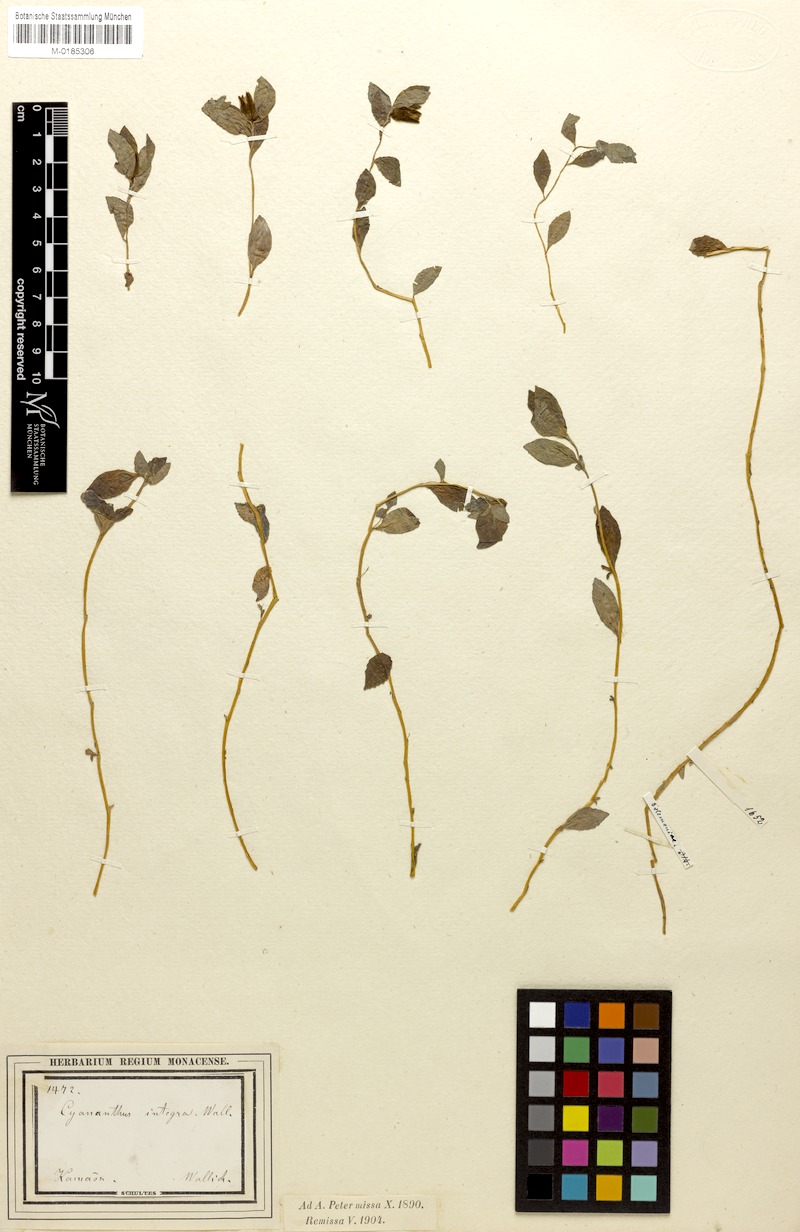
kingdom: Plantae
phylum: Tracheophyta
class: Magnoliopsida
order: Asterales
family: Campanulaceae
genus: Cyananthus
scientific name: Cyananthus integer
